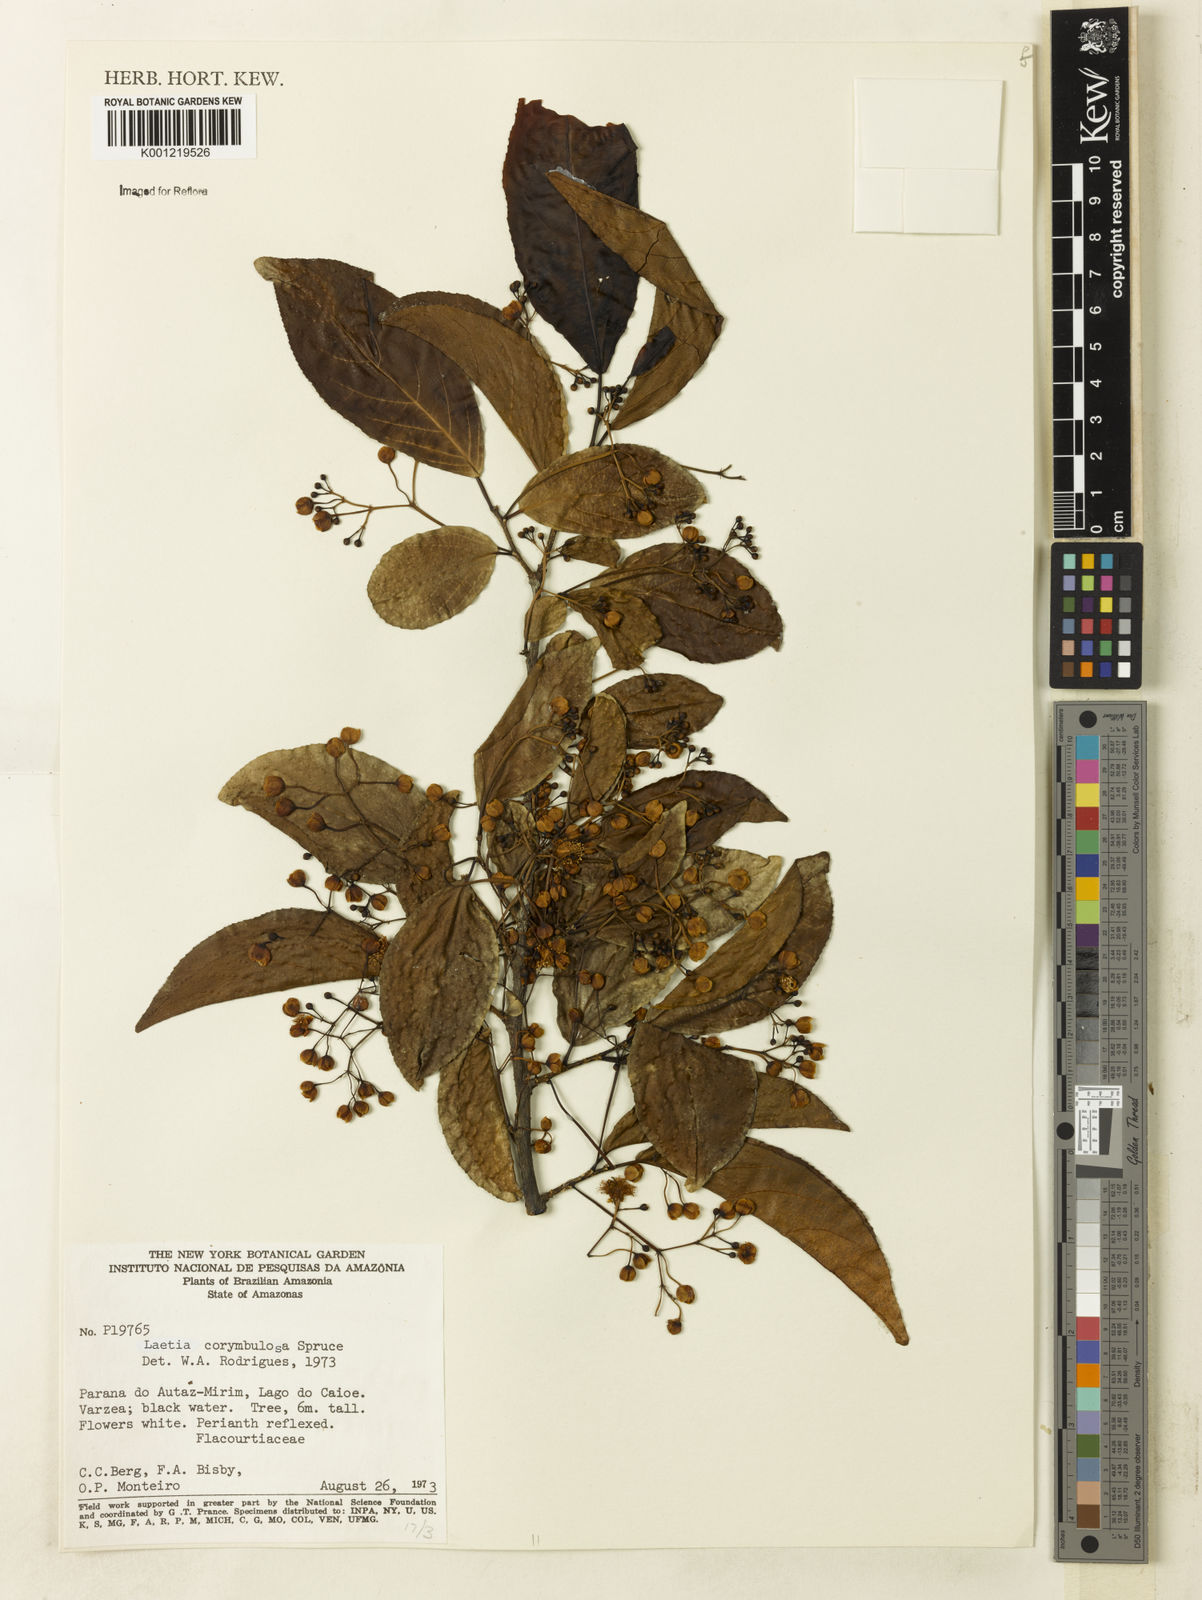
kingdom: Plantae
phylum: Tracheophyta
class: Magnoliopsida
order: Malpighiales
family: Salicaceae
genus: Casearia
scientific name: Casearia corymbulosa
